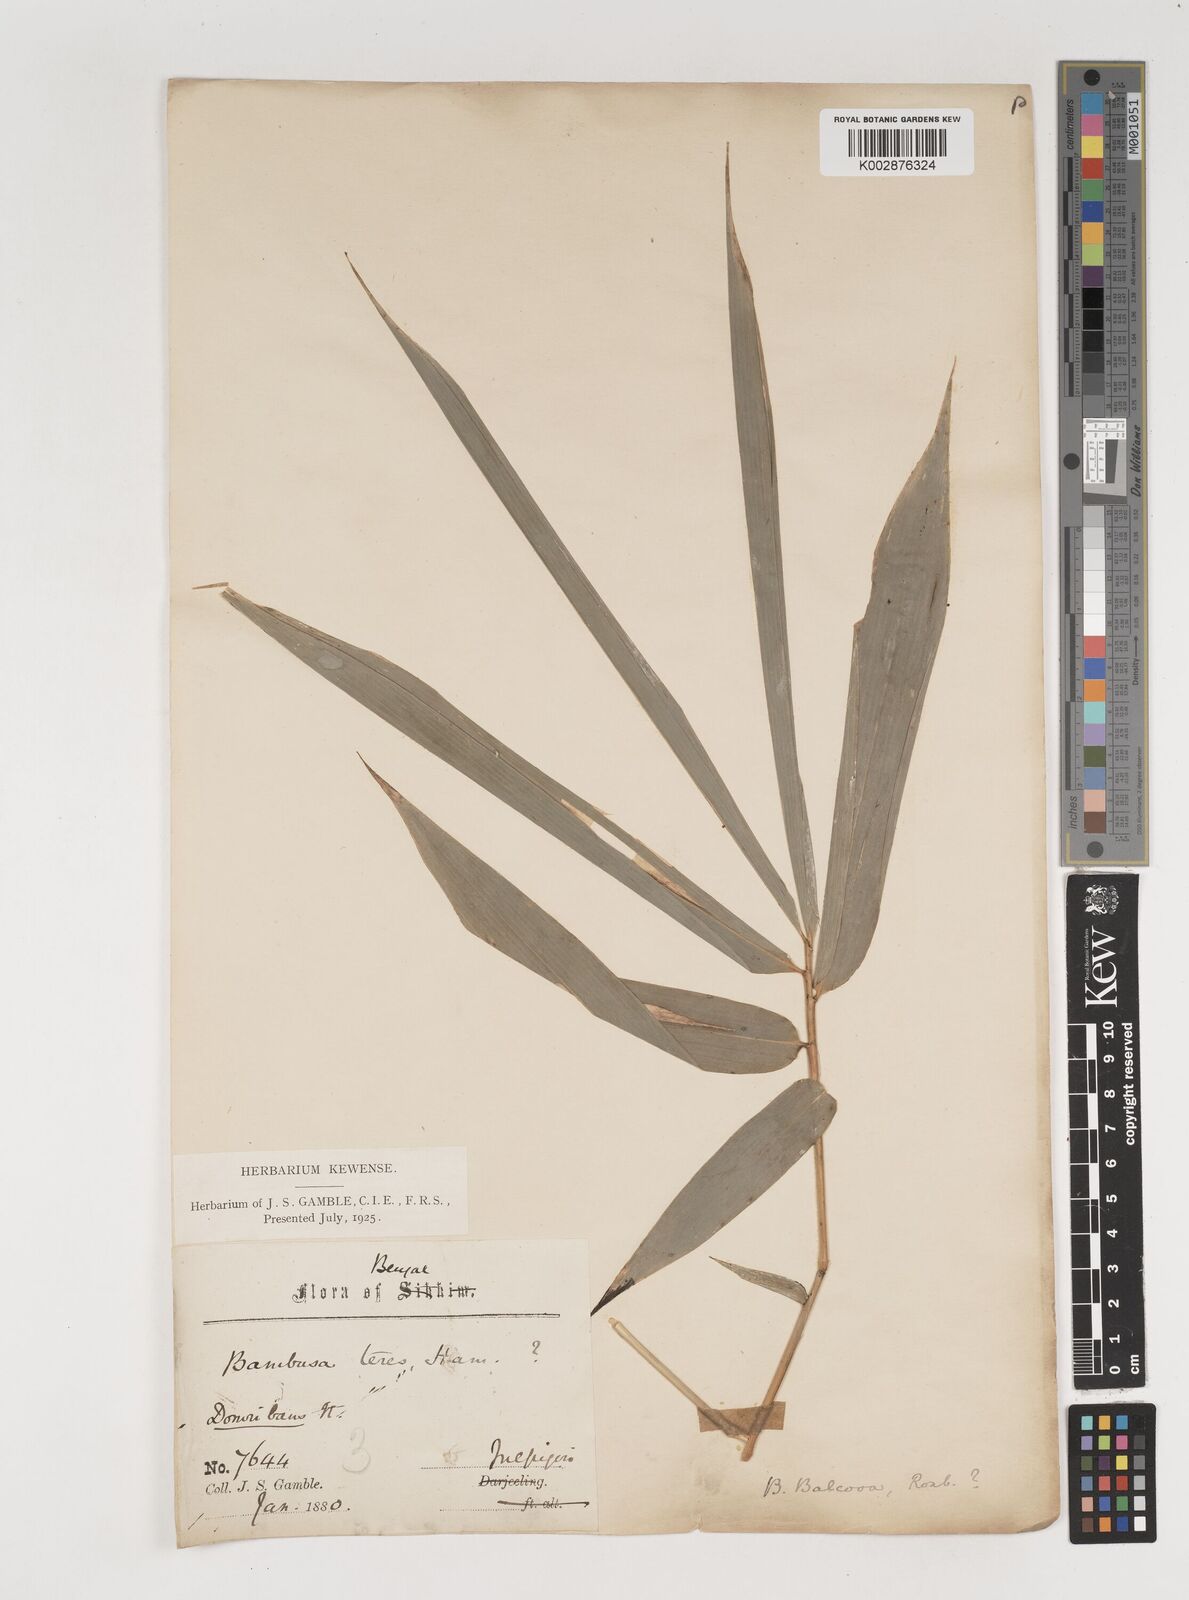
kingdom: Plantae
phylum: Tracheophyta
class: Liliopsida
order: Poales
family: Poaceae
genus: Bambusa
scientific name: Bambusa balcooa
